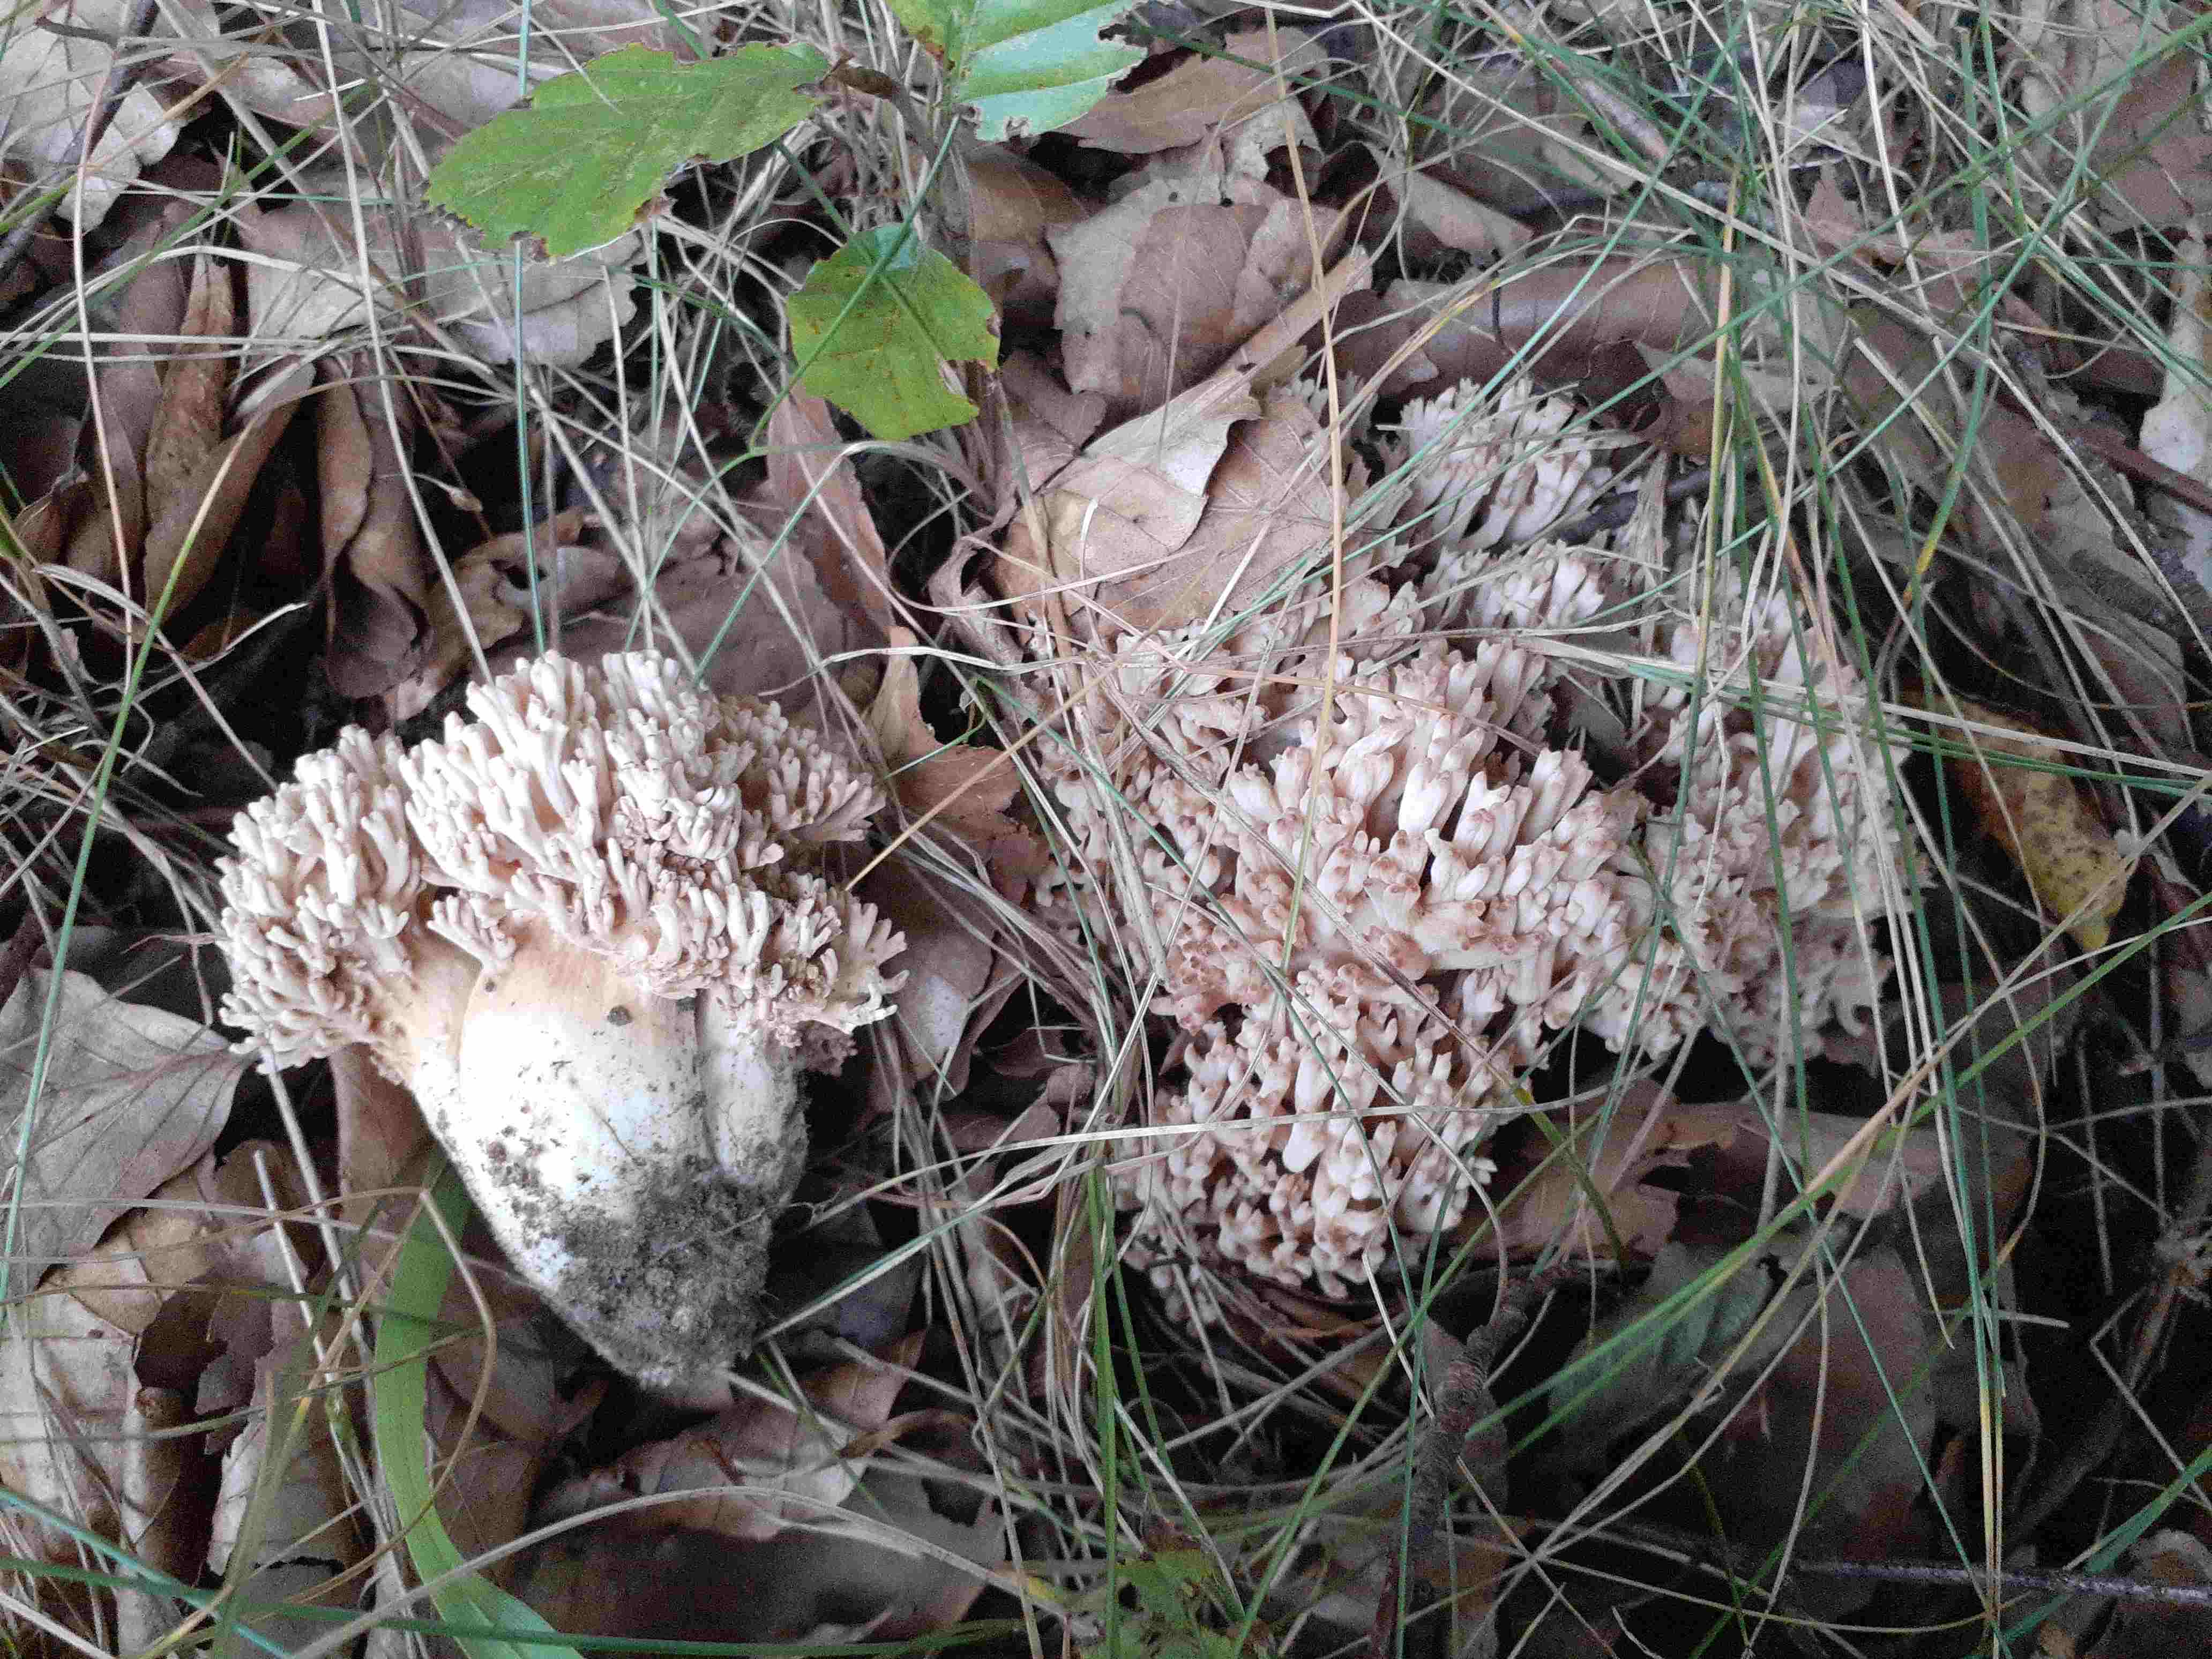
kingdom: Fungi
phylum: Basidiomycota
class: Agaricomycetes
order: Gomphales
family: Gomphaceae
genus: Ramaria
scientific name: Ramaria botrytis
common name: drue-koralsvamp
